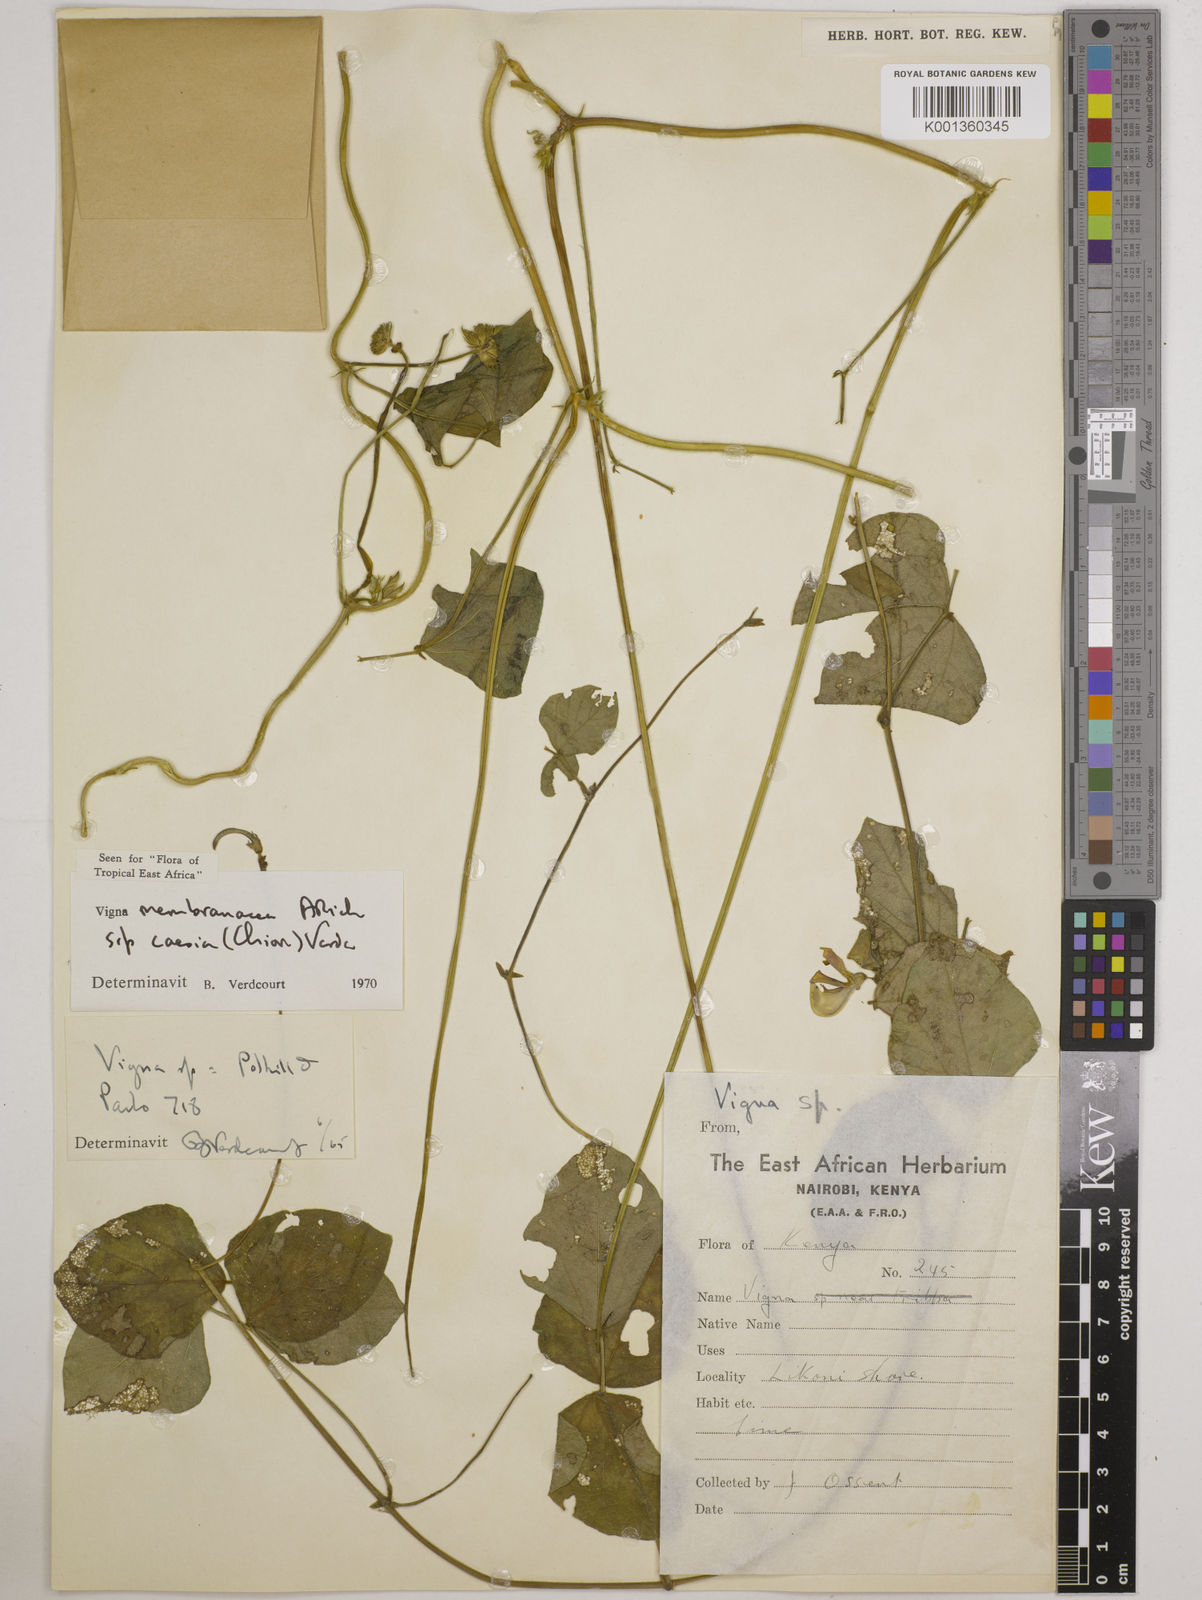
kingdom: Plantae
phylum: Tracheophyta
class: Magnoliopsida
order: Fabales
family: Fabaceae
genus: Vigna
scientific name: Vigna
